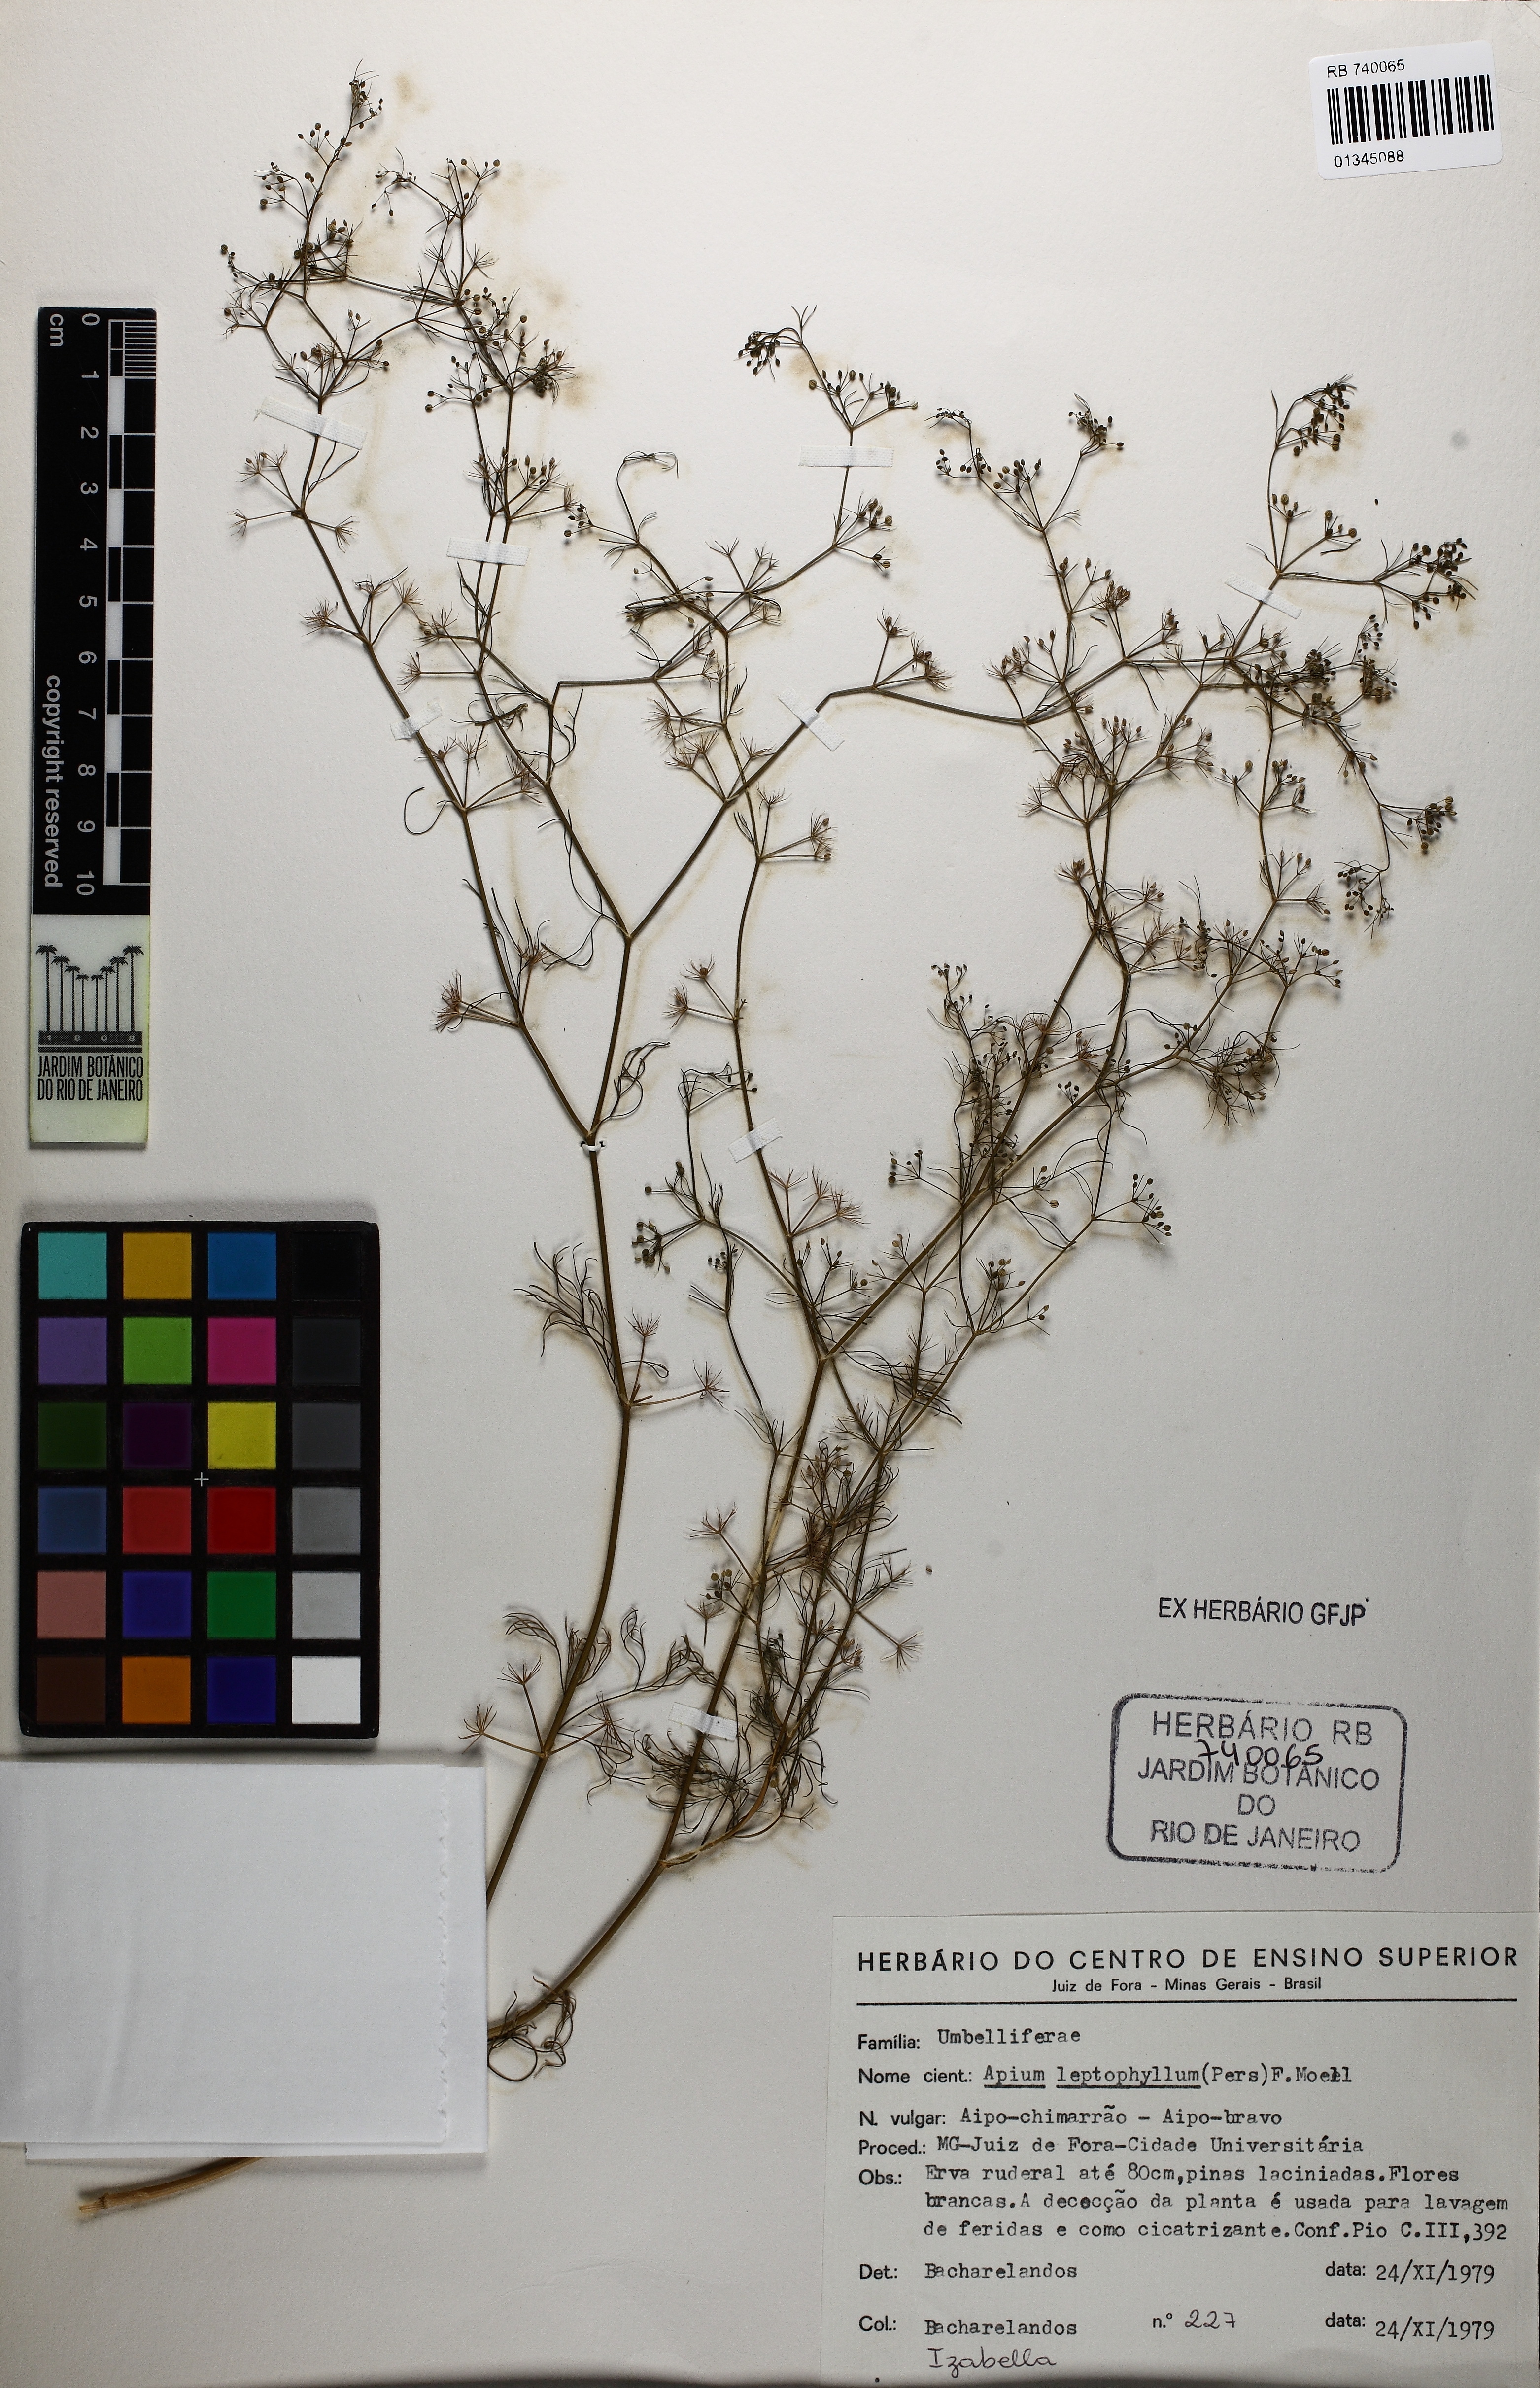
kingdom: Plantae
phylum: Tracheophyta
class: Magnoliopsida
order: Apiales
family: Apiaceae
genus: Cyclospermum
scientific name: Cyclospermum leptophyllum
